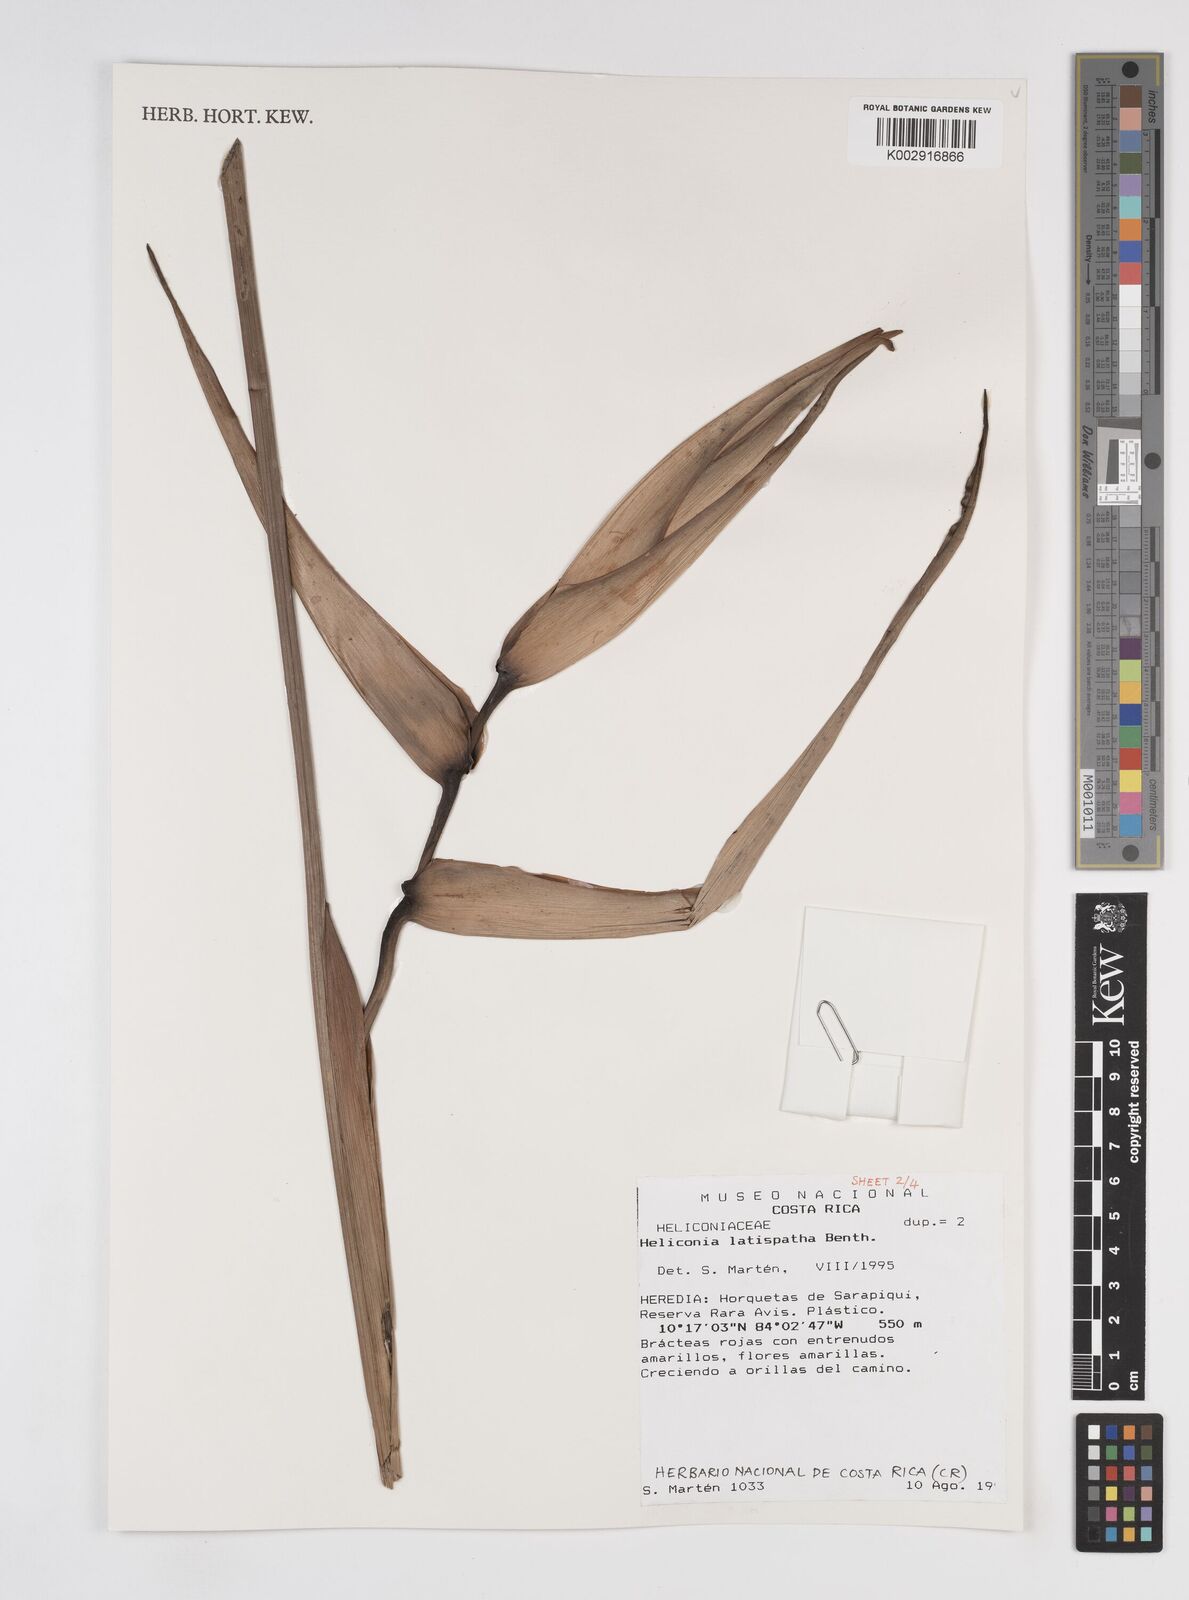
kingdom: Plantae
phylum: Tracheophyta
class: Liliopsida
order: Zingiberales
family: Heliconiaceae
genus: Heliconia
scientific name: Heliconia latispatha
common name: Expanded lobsterclaw
